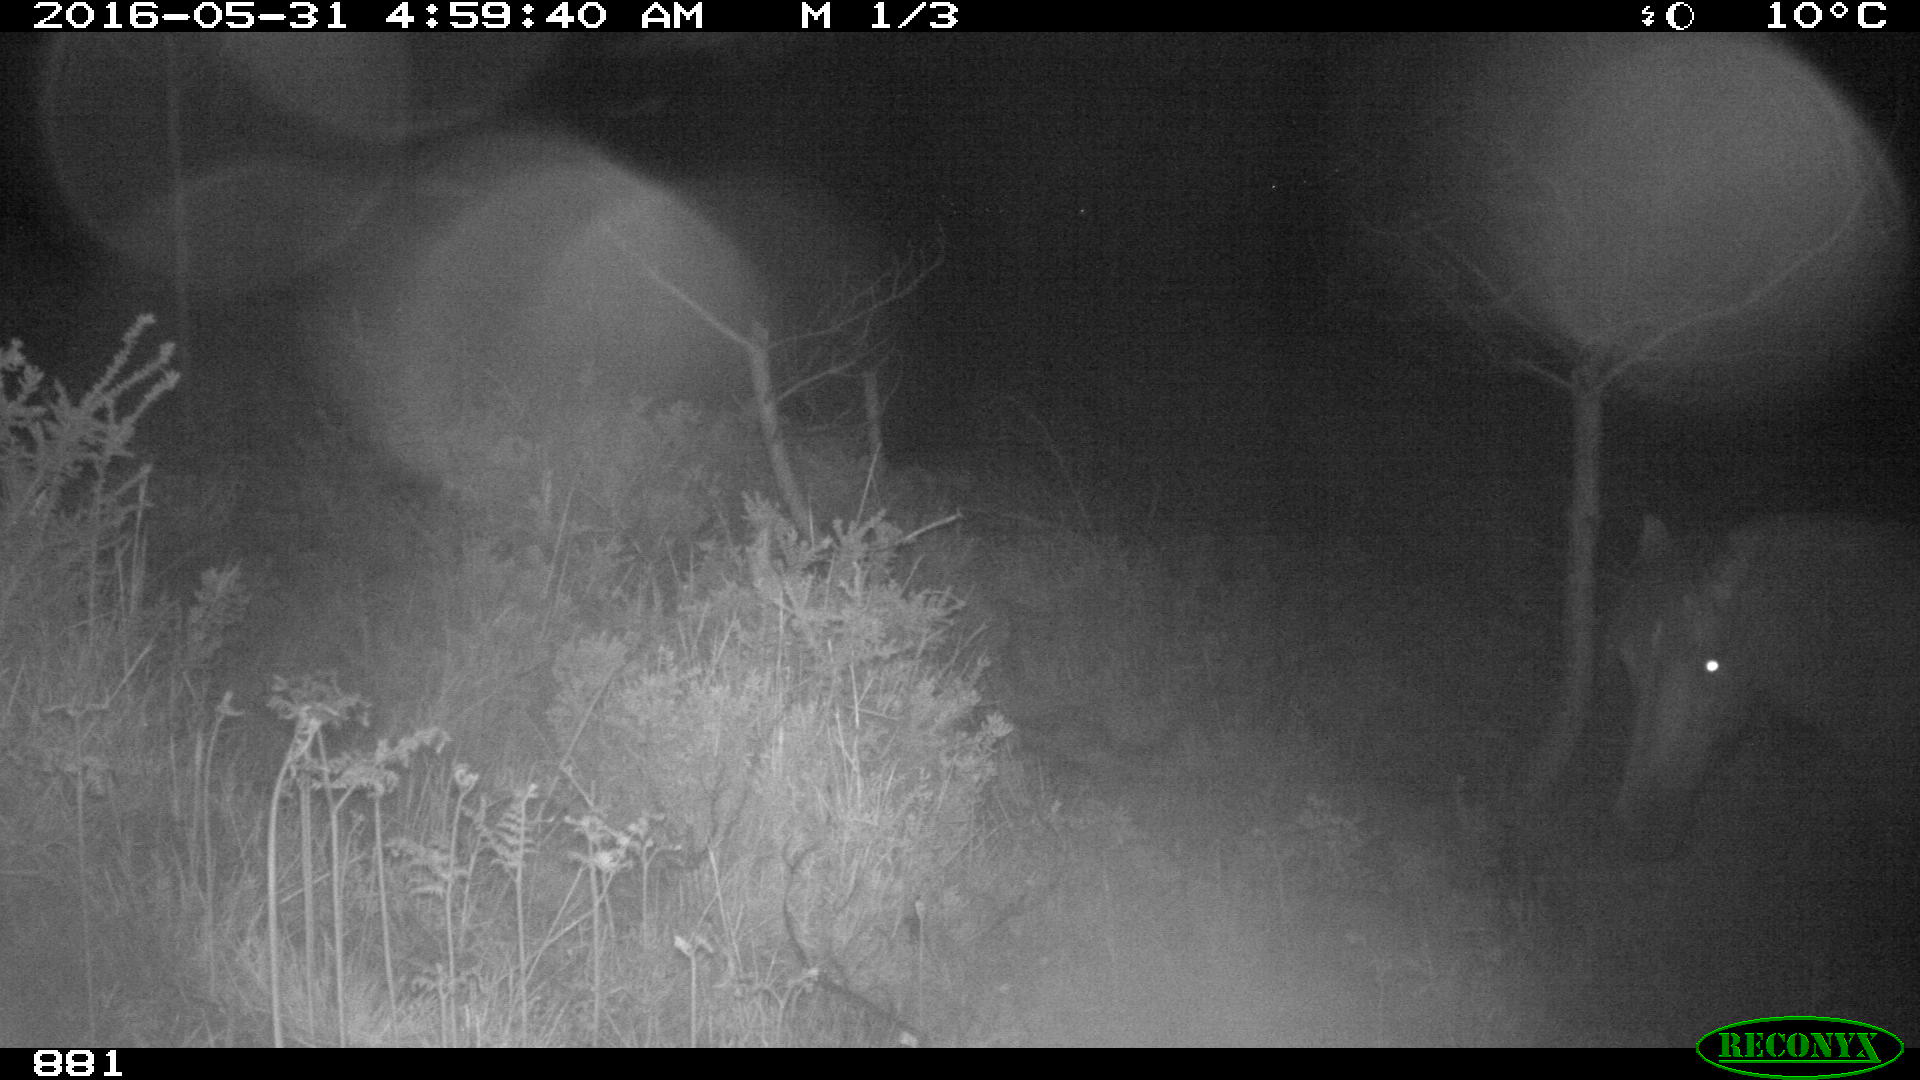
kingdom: Animalia
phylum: Chordata
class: Mammalia
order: Perissodactyla
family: Equidae
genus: Equus
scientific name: Equus caballus
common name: Horse
